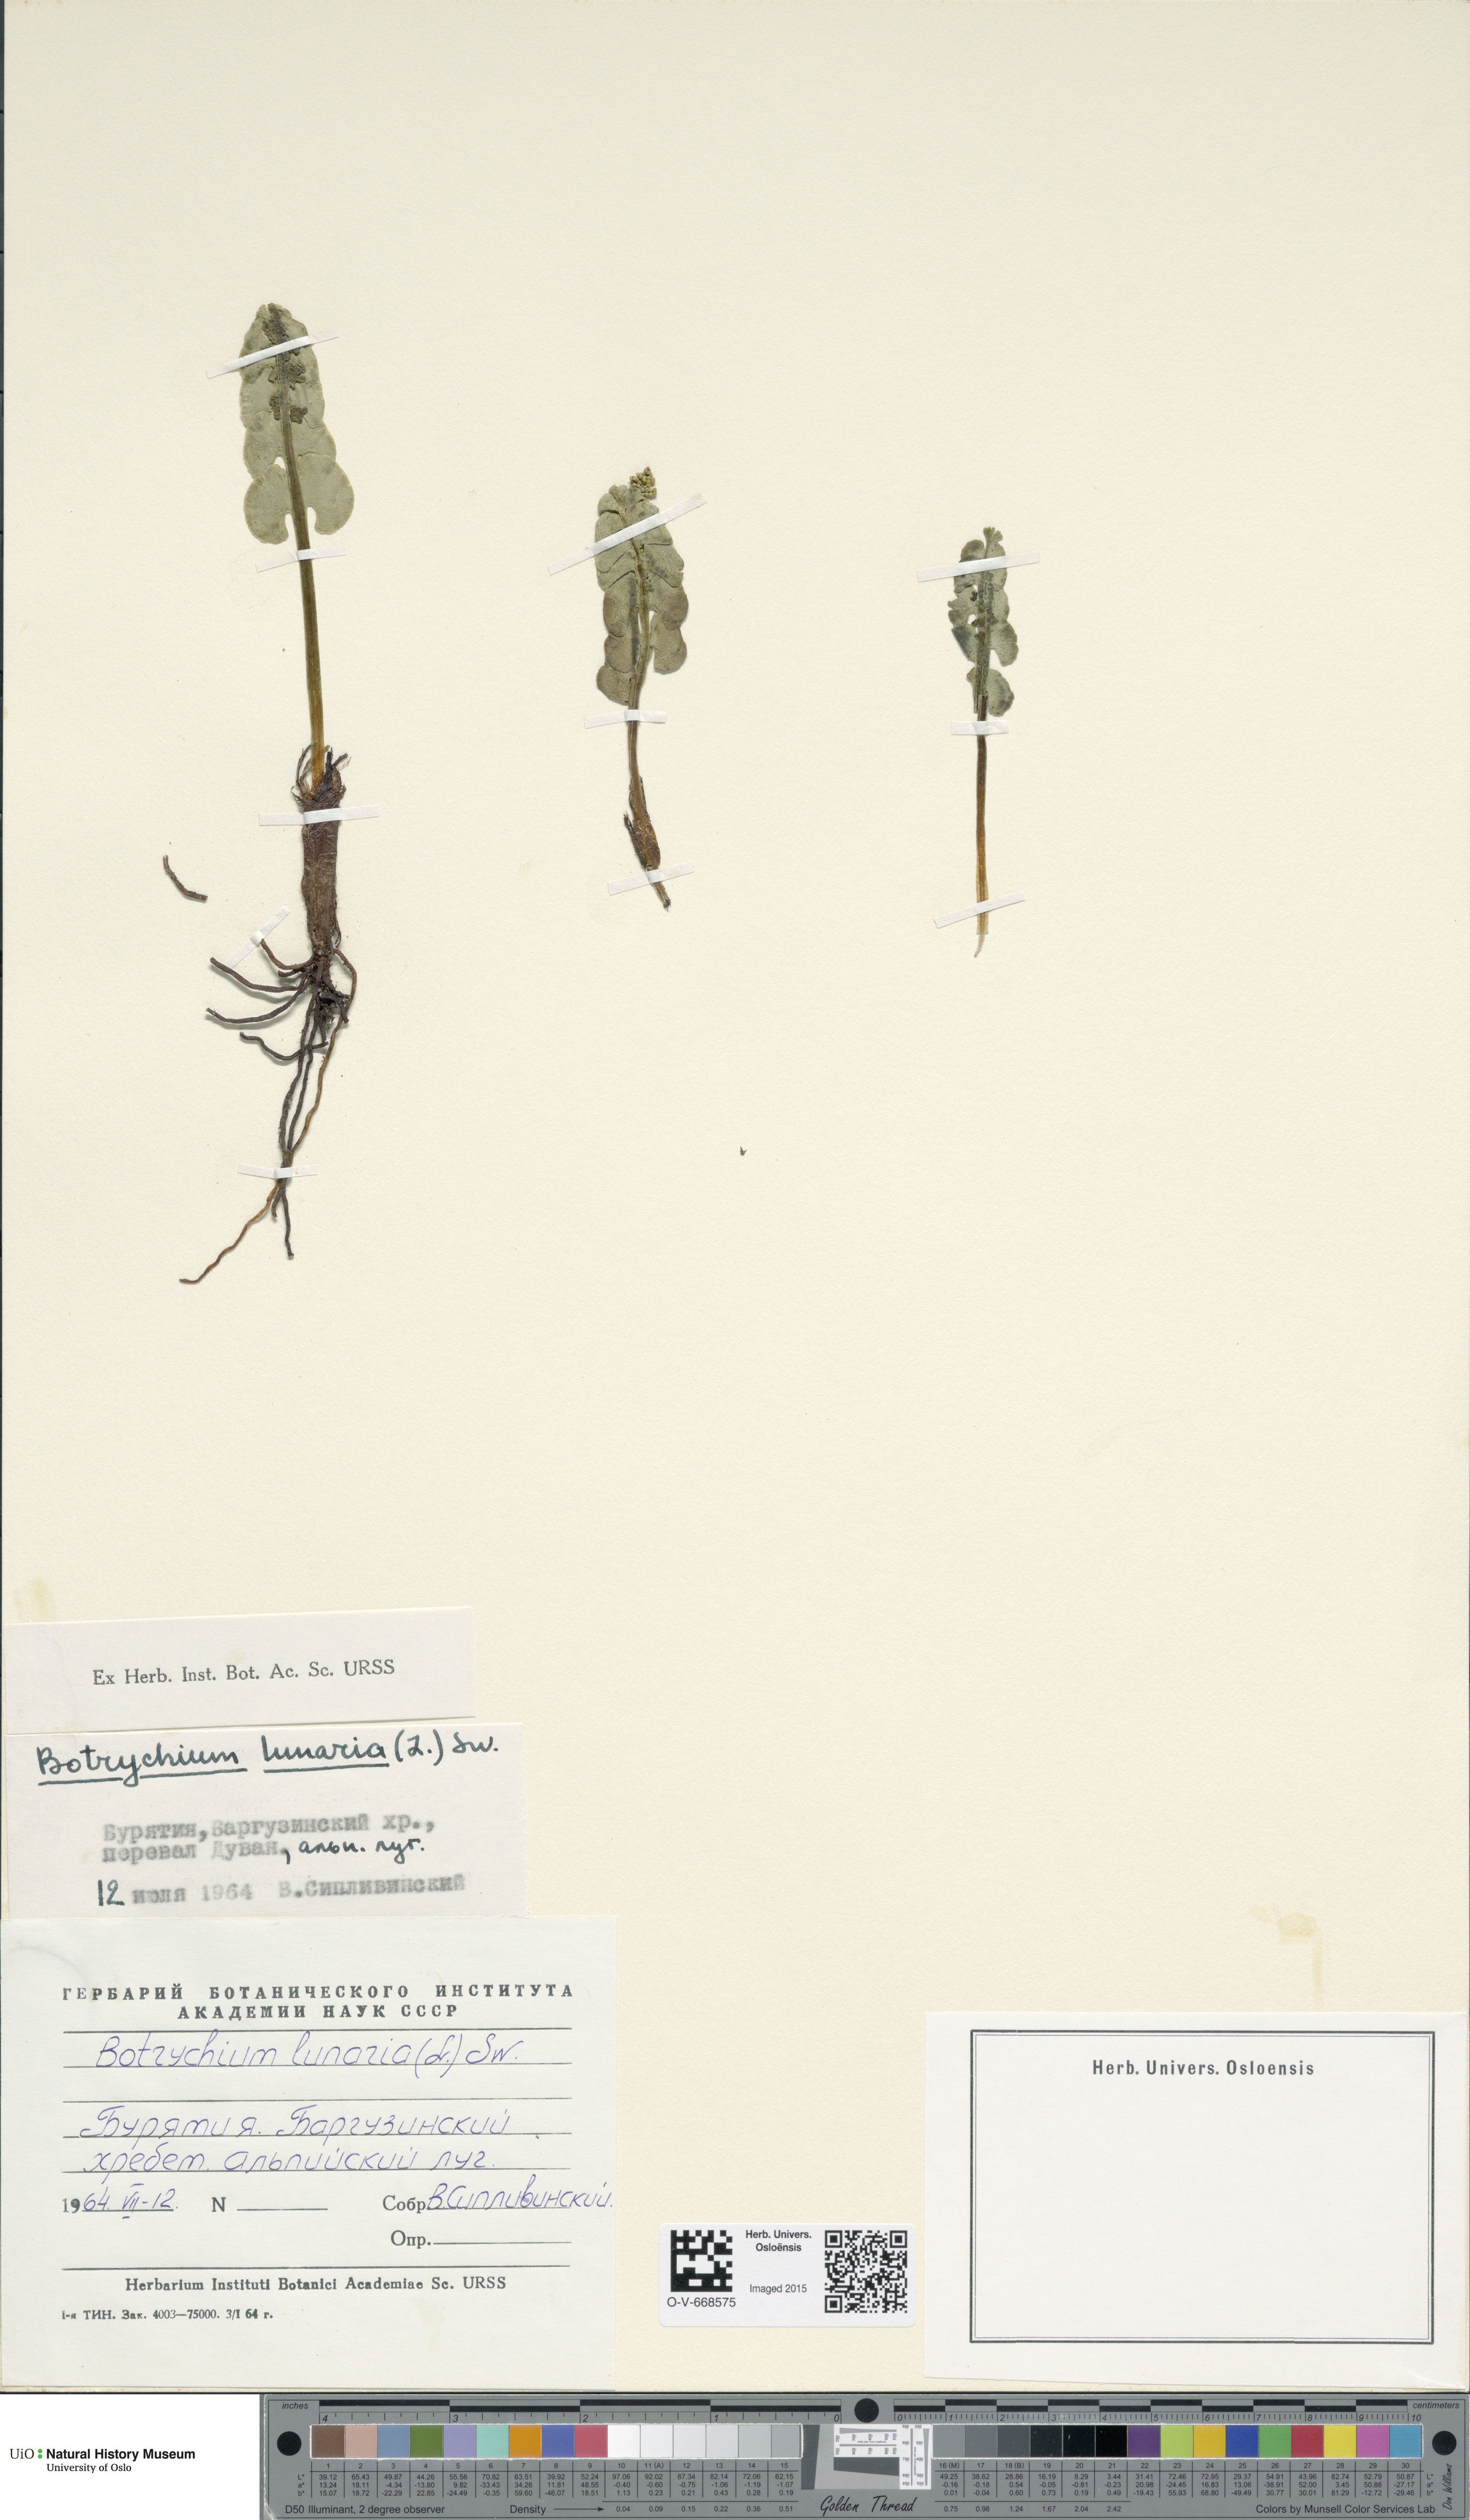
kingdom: Plantae
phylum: Tracheophyta
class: Polypodiopsida
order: Ophioglossales
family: Ophioglossaceae
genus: Botrychium
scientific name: Botrychium lunaria
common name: Moonwort
